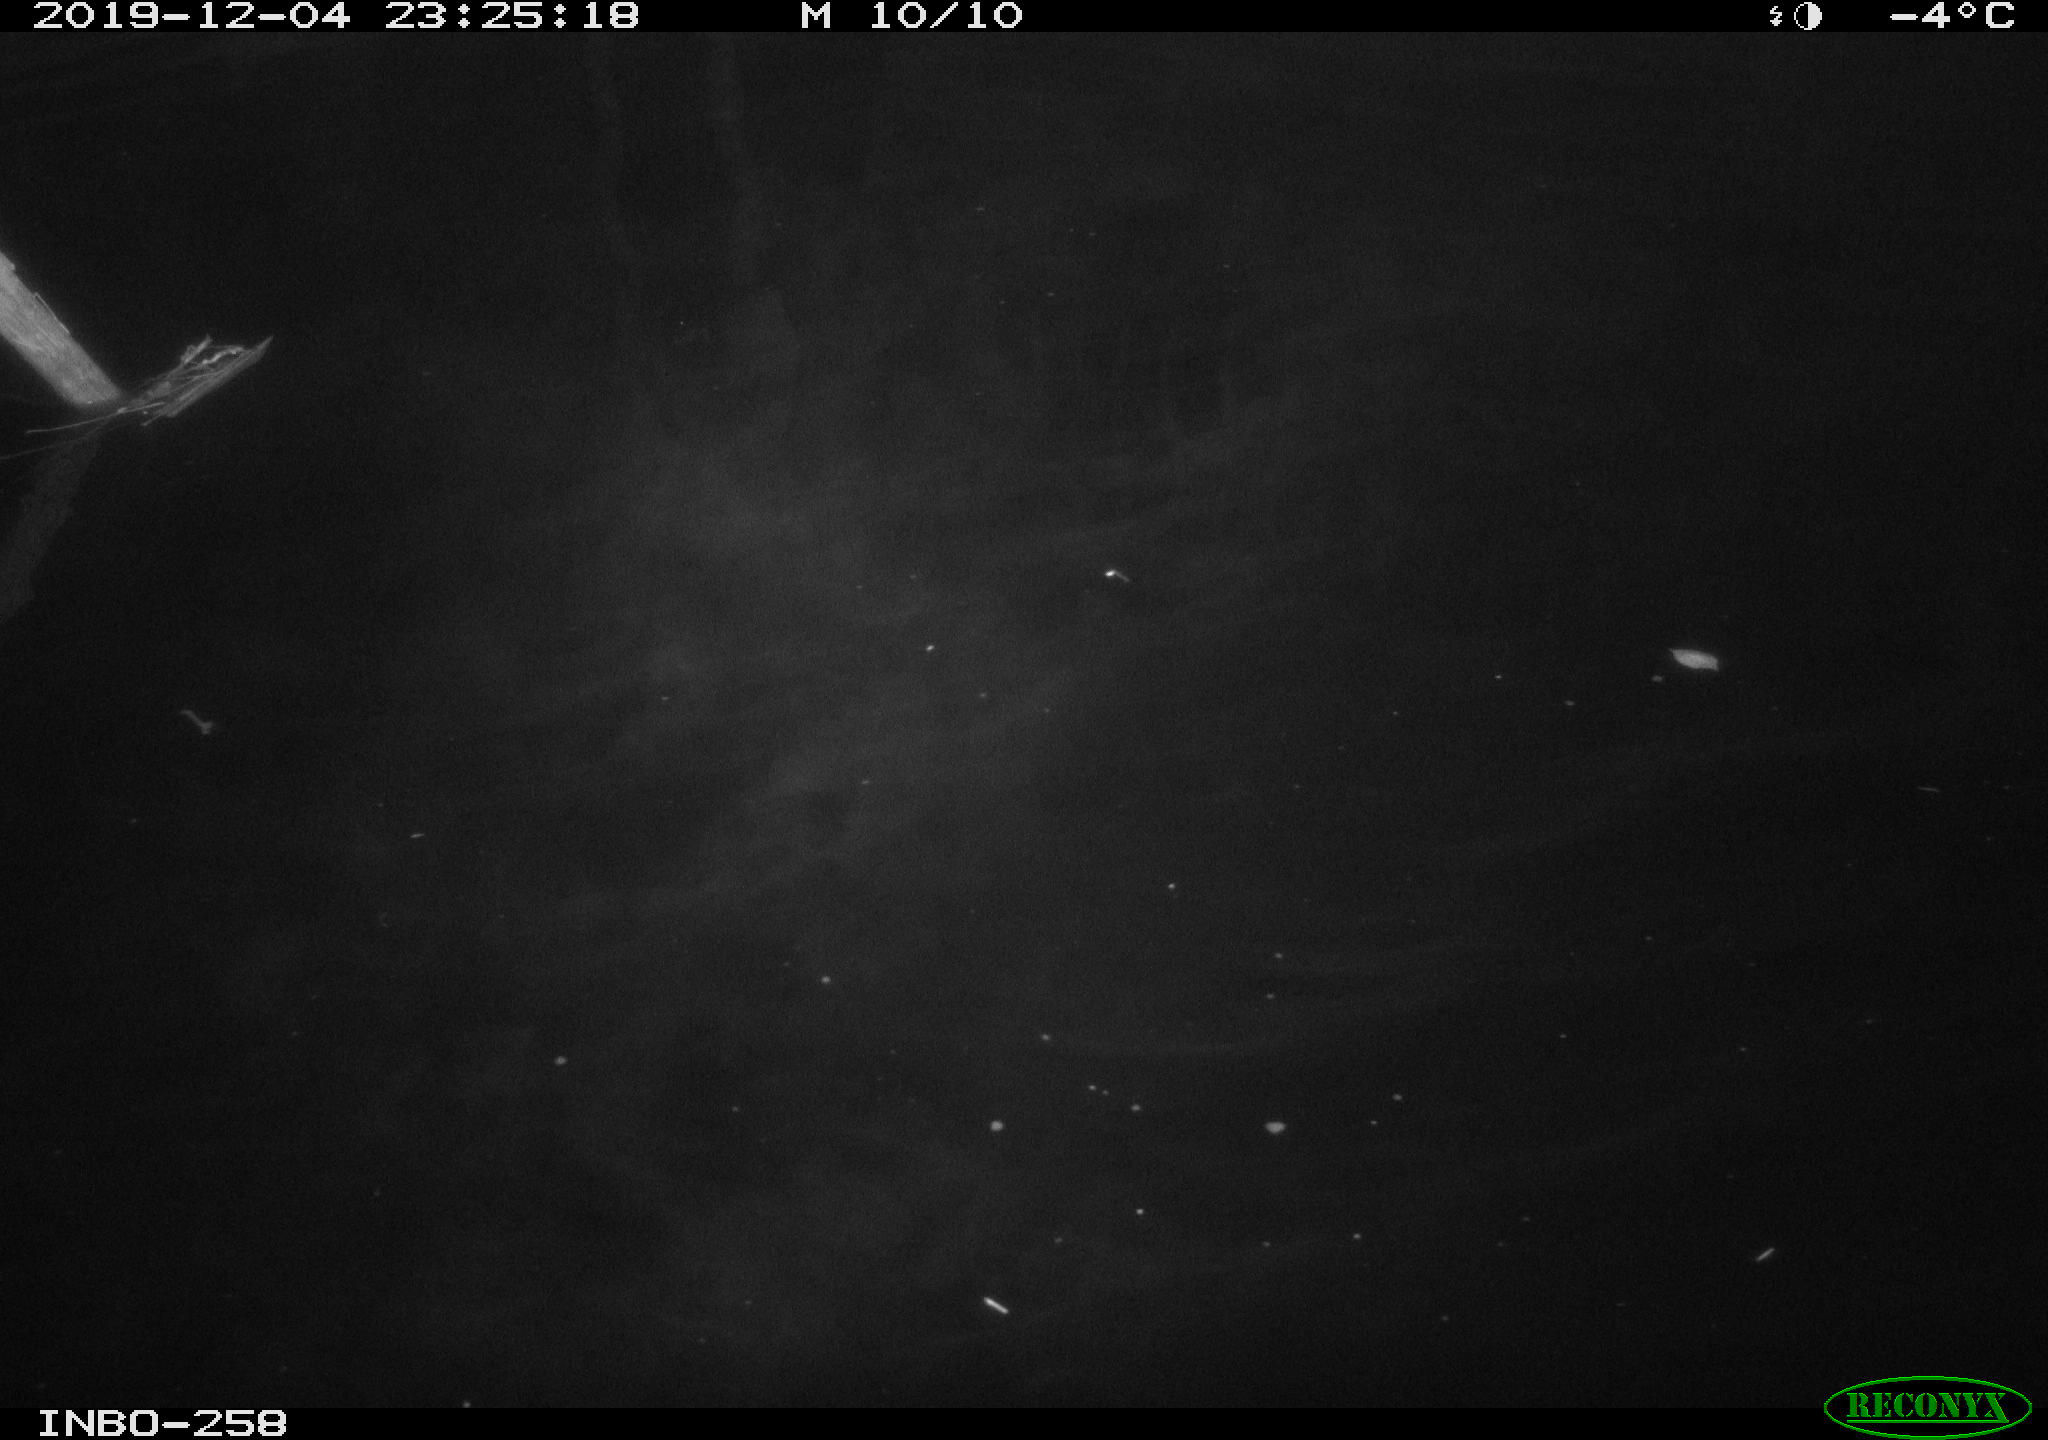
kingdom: Animalia
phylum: Chordata
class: Aves
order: Anseriformes
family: Anatidae
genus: Anas
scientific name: Anas platyrhynchos
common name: Mallard
